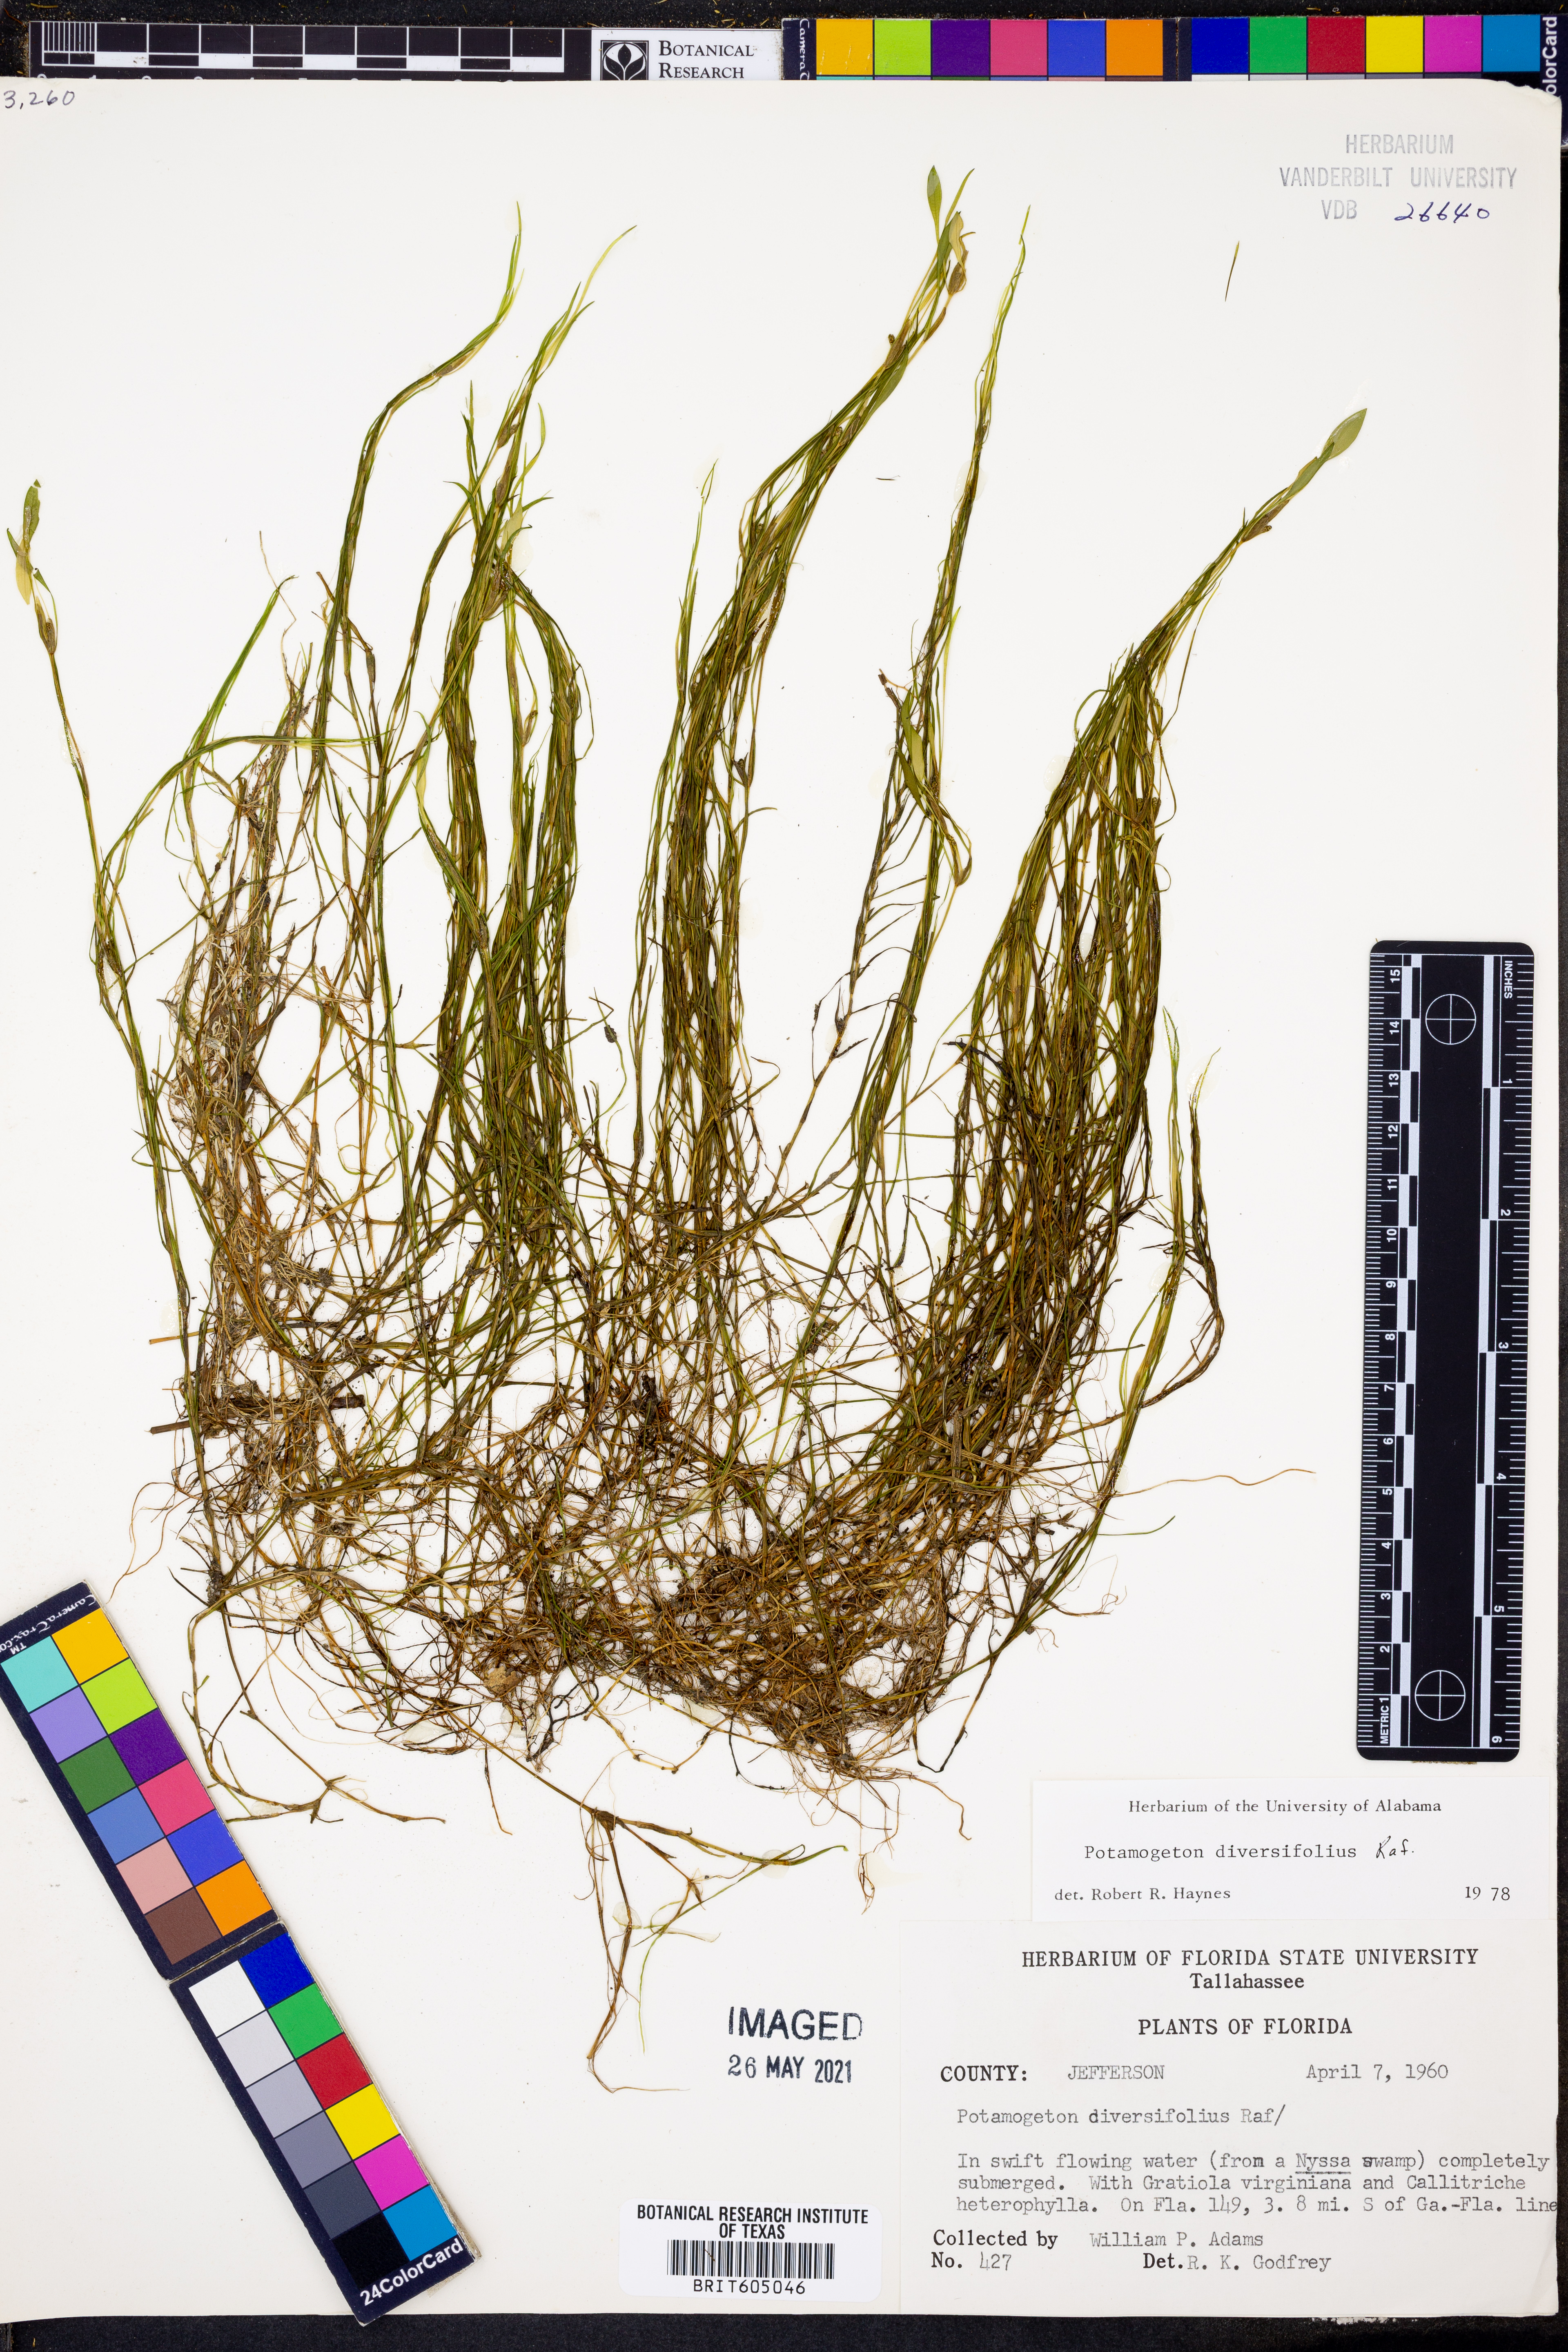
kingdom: Plantae
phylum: Tracheophyta
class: Liliopsida
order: Alismatales
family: Potamogetonaceae
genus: Potamogeton
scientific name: Potamogeton diversifolius
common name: Water-thread pondweed
